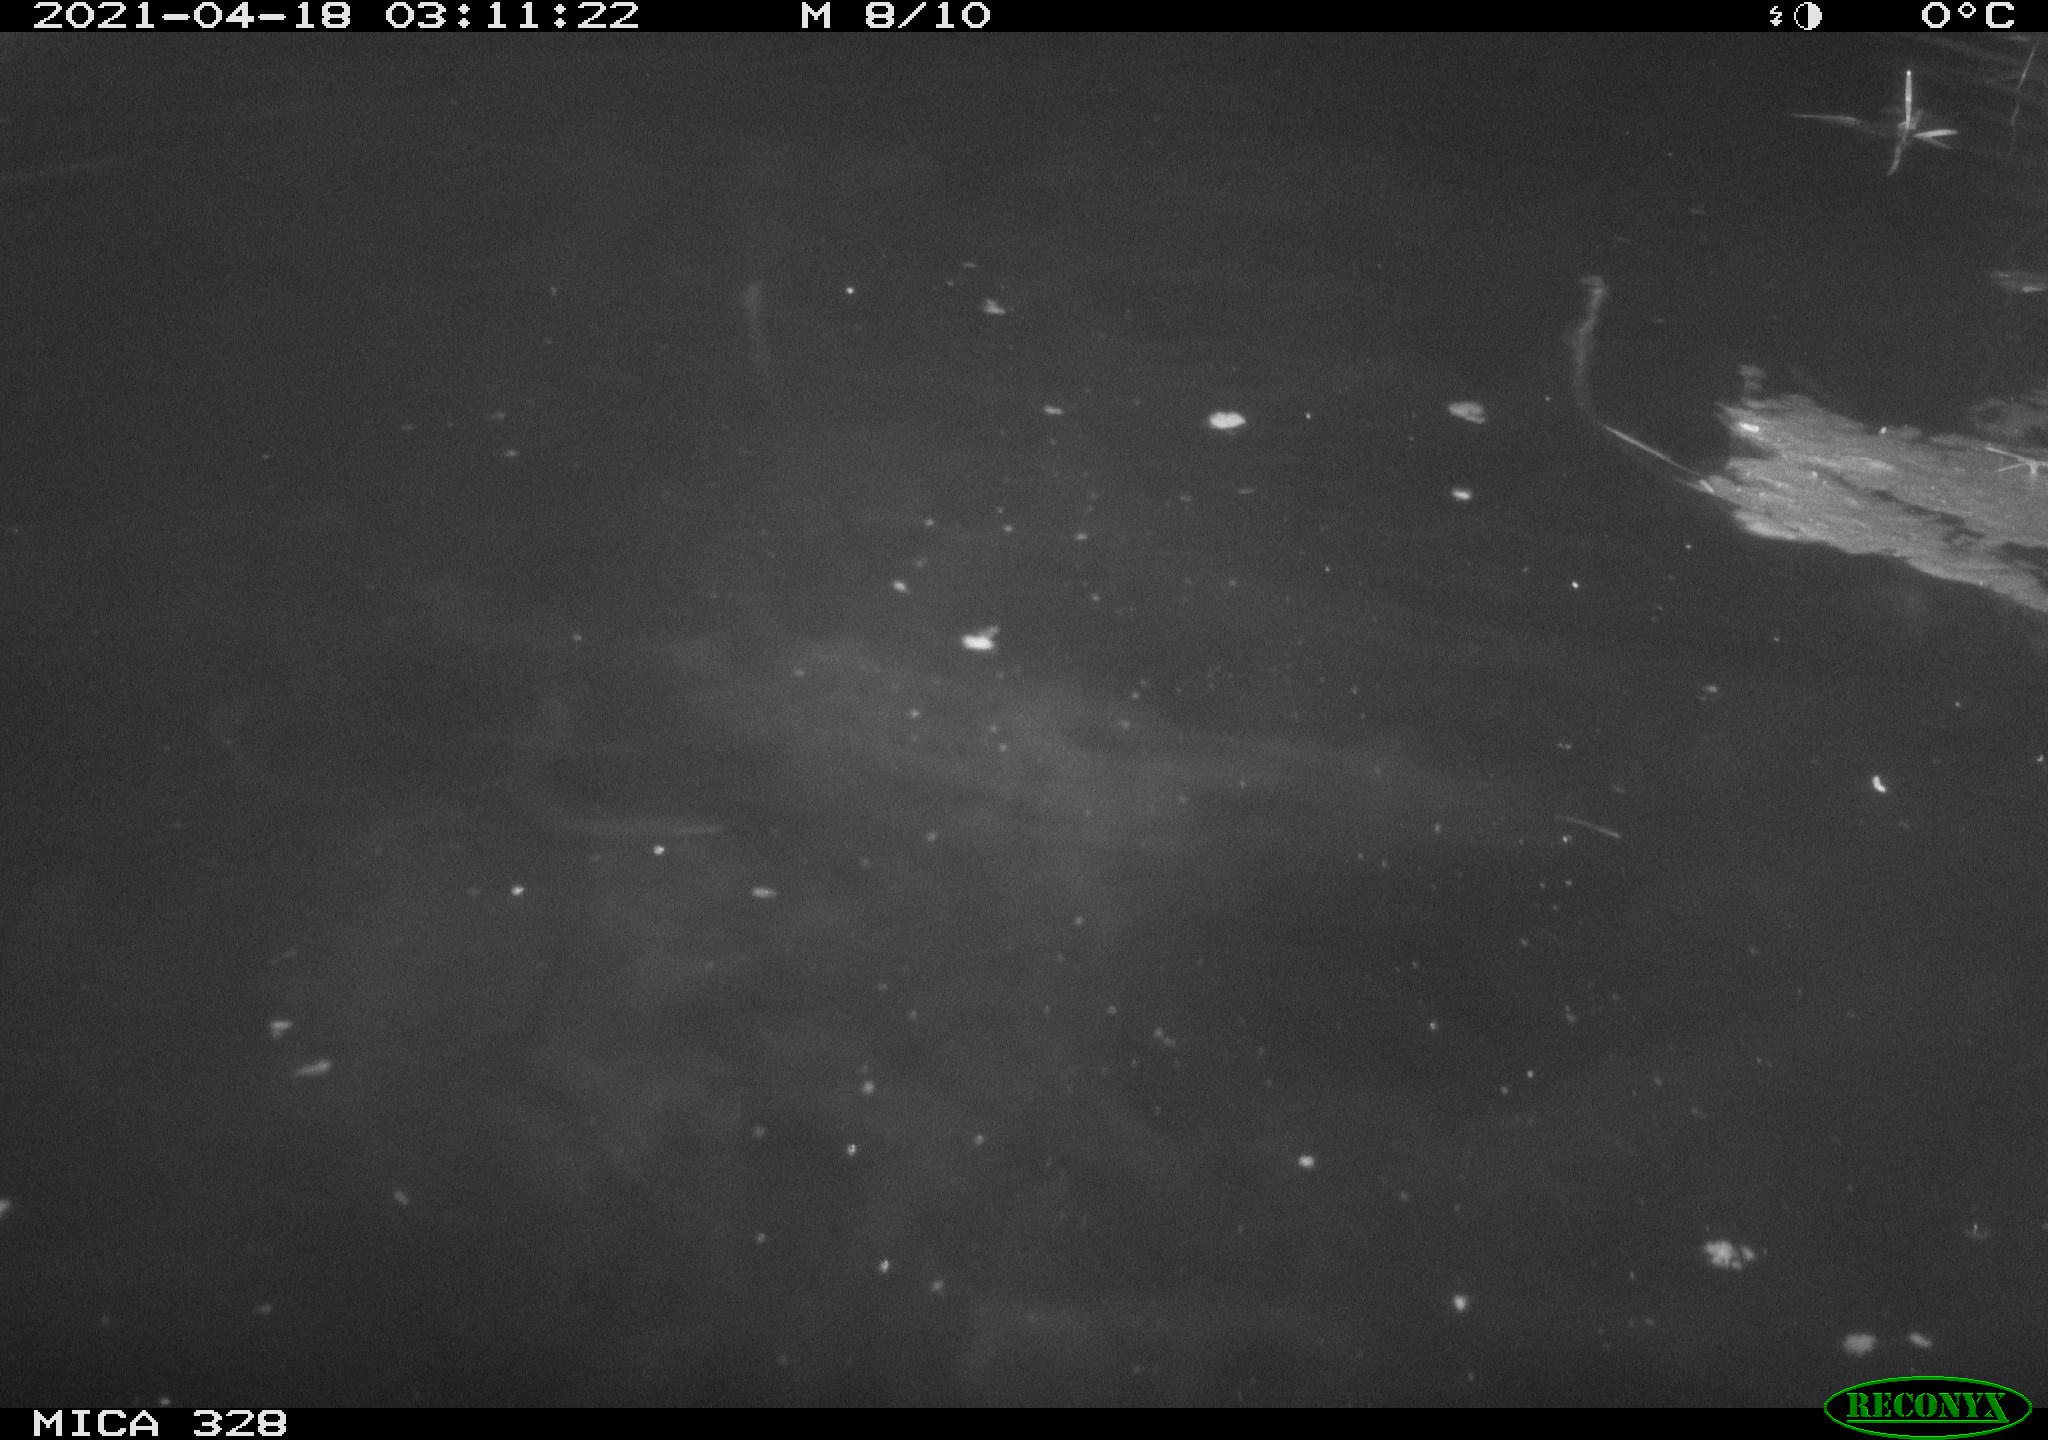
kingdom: Animalia
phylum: Chordata
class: Mammalia
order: Rodentia
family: Cricetidae
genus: Ondatra
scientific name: Ondatra zibethicus
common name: Muskrat
